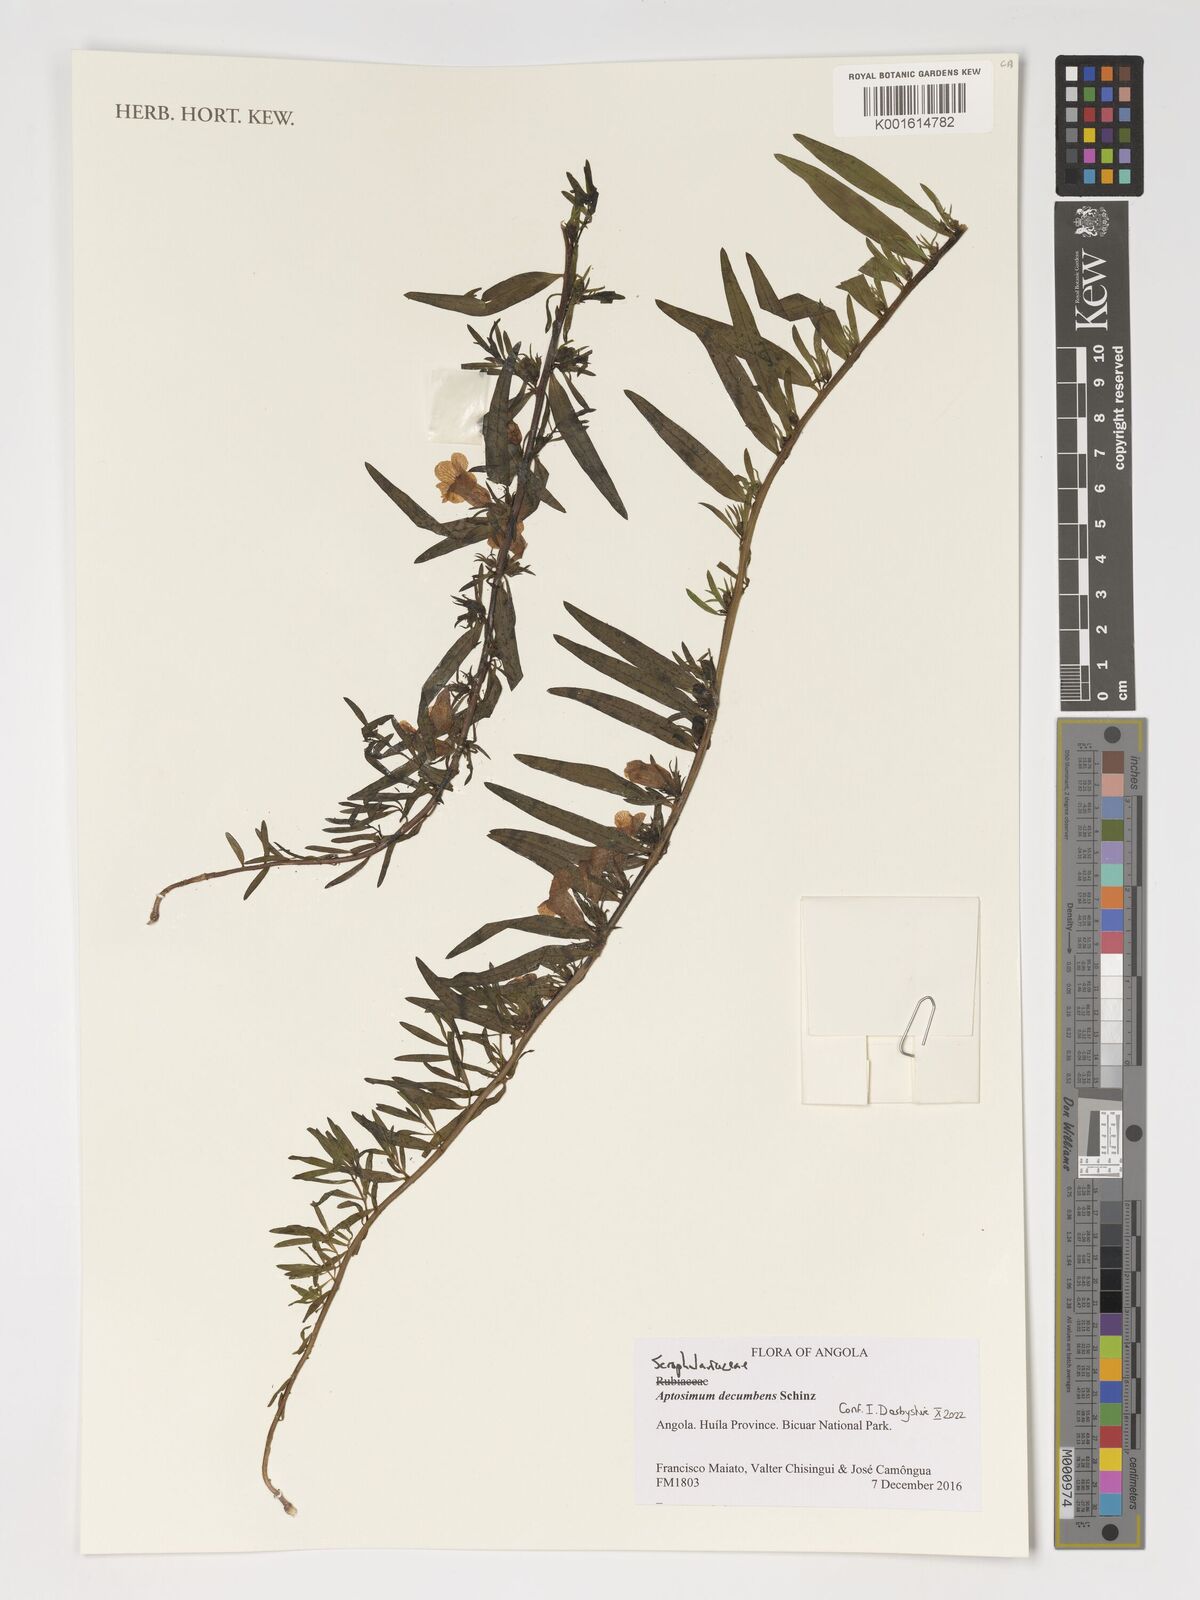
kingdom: Plantae
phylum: Tracheophyta
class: Magnoliopsida
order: Lamiales
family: Scrophulariaceae
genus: Aptosimum
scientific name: Aptosimum decumbens
